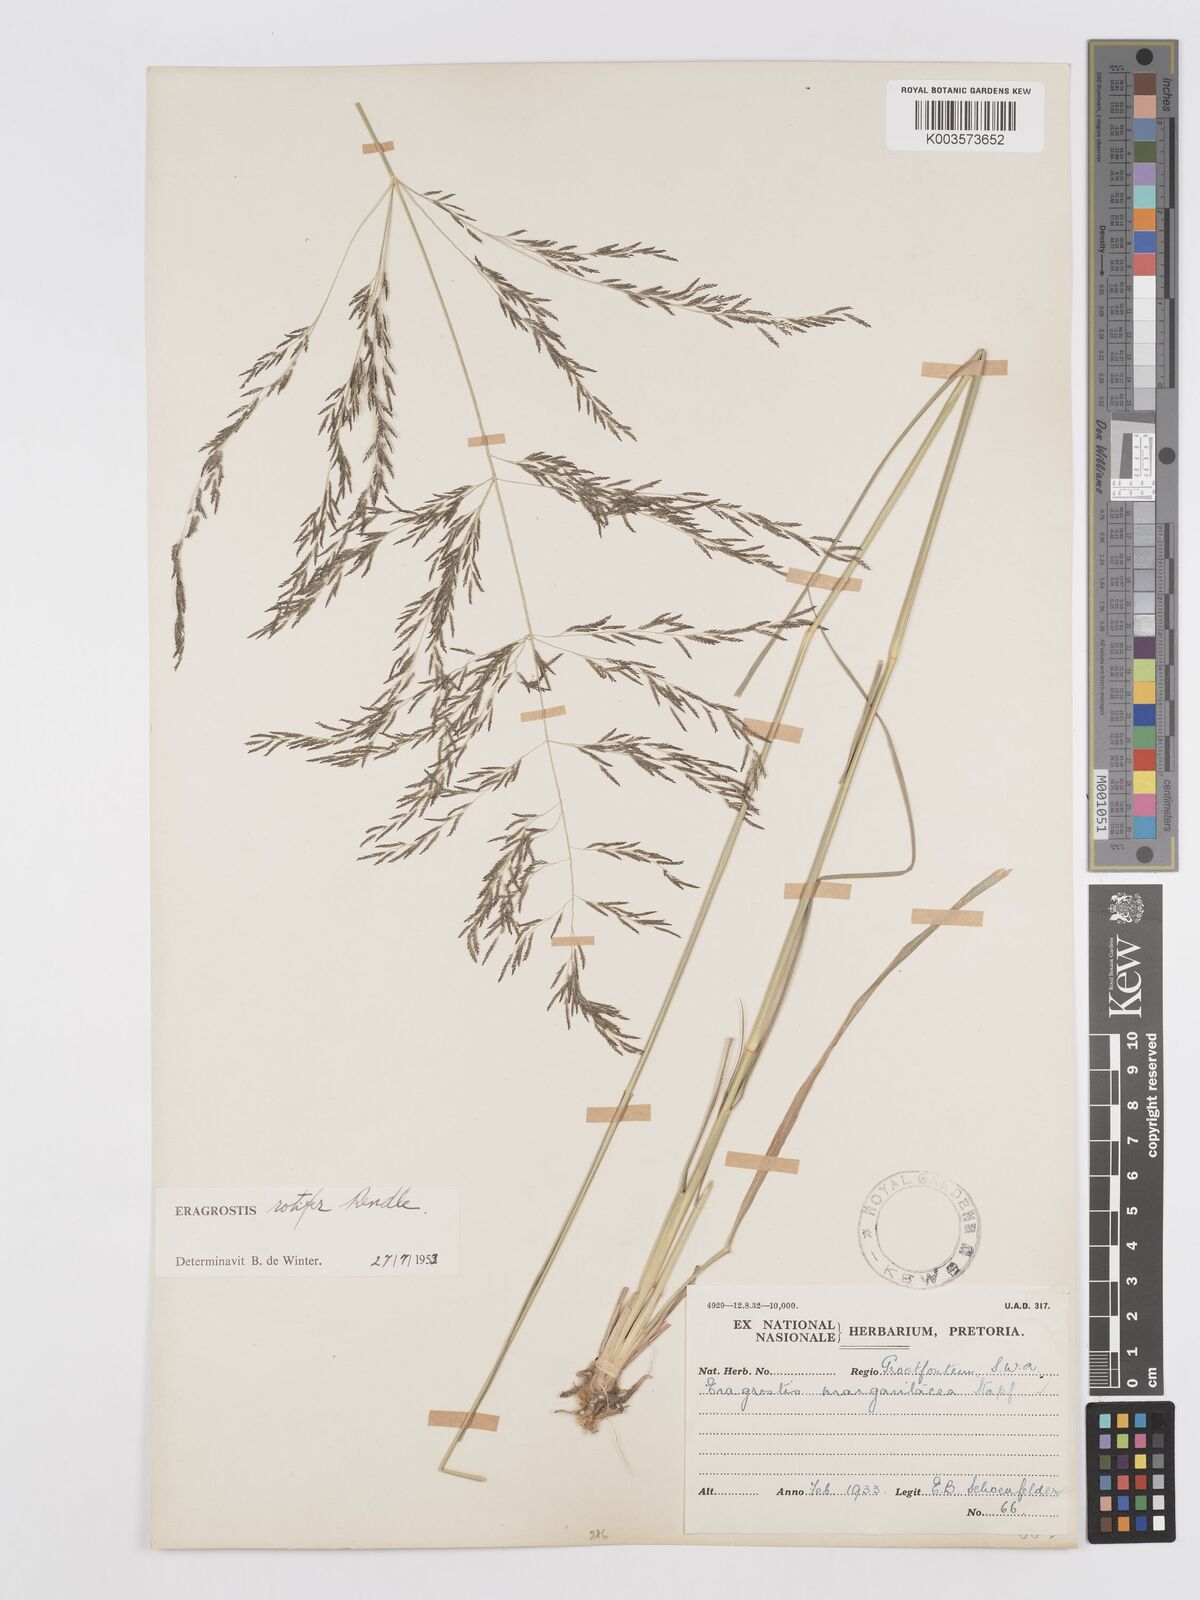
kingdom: Plantae
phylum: Tracheophyta
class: Liliopsida
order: Poales
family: Poaceae
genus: Eragrostis
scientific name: Eragrostis rotifer
